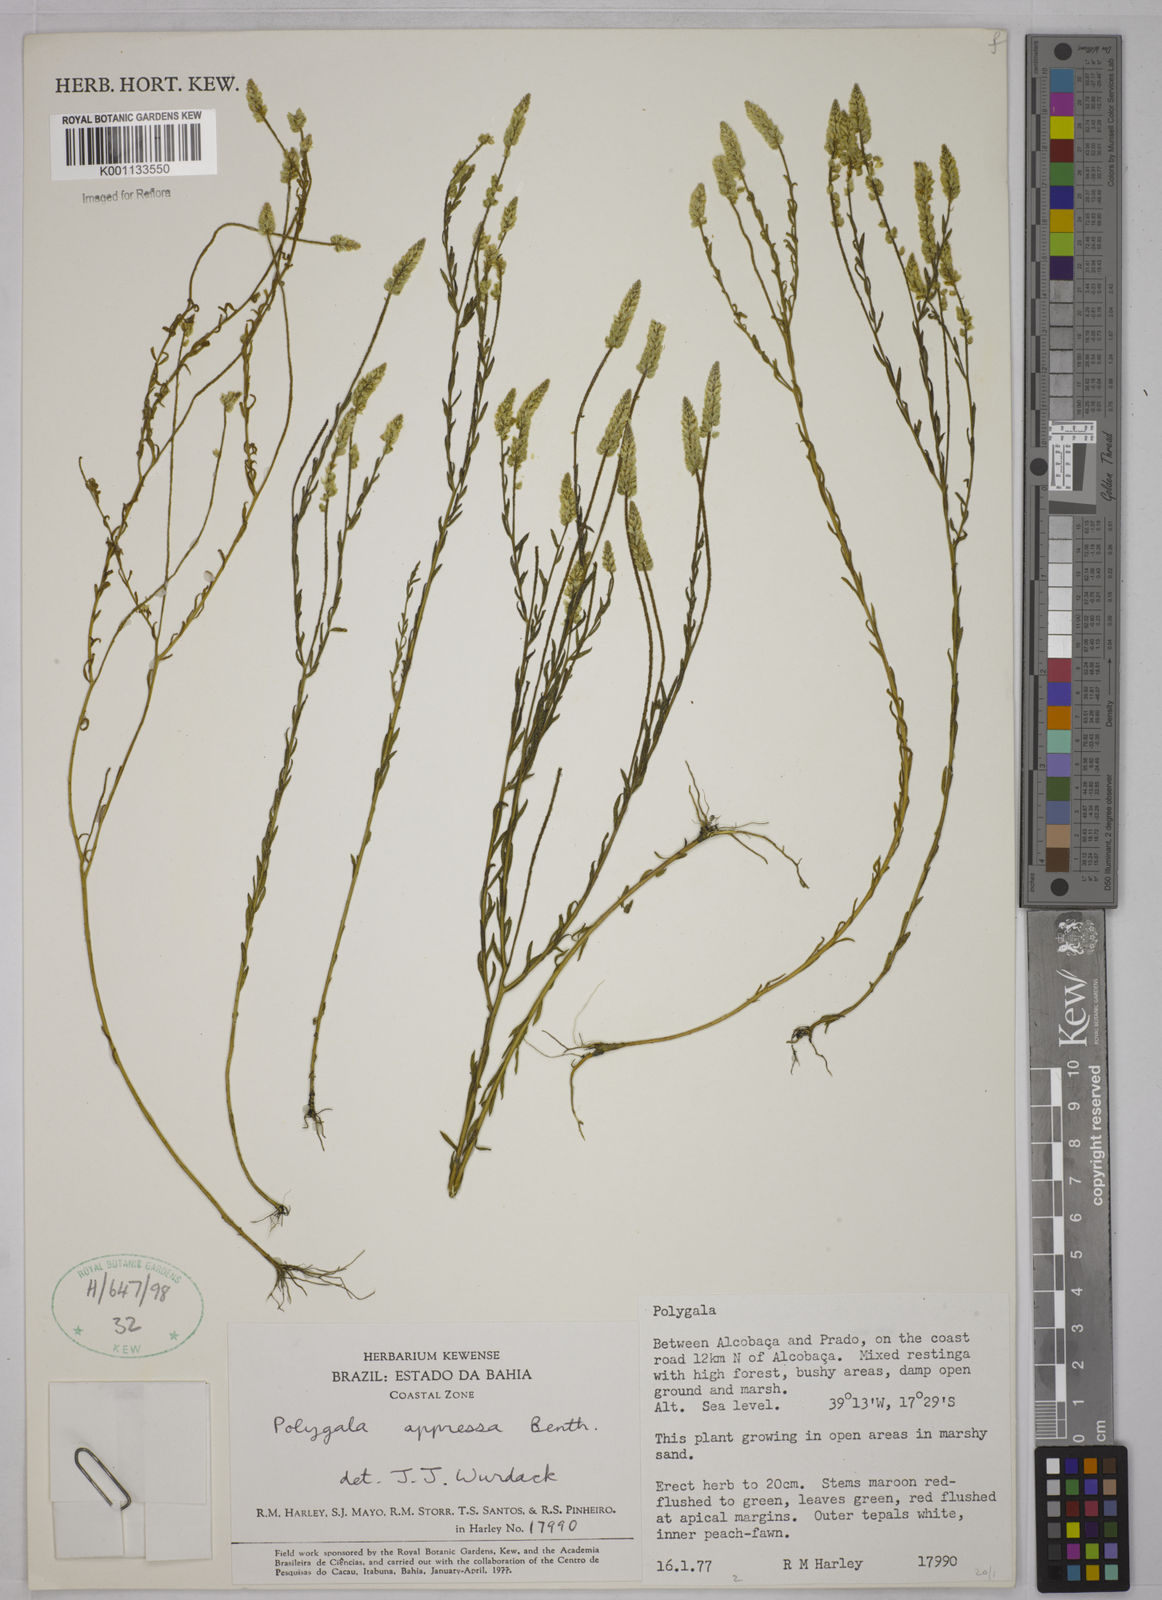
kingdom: Plantae
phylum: Tracheophyta
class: Magnoliopsida
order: Fabales
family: Polygalaceae
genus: Polygala
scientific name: Polygala appressa
